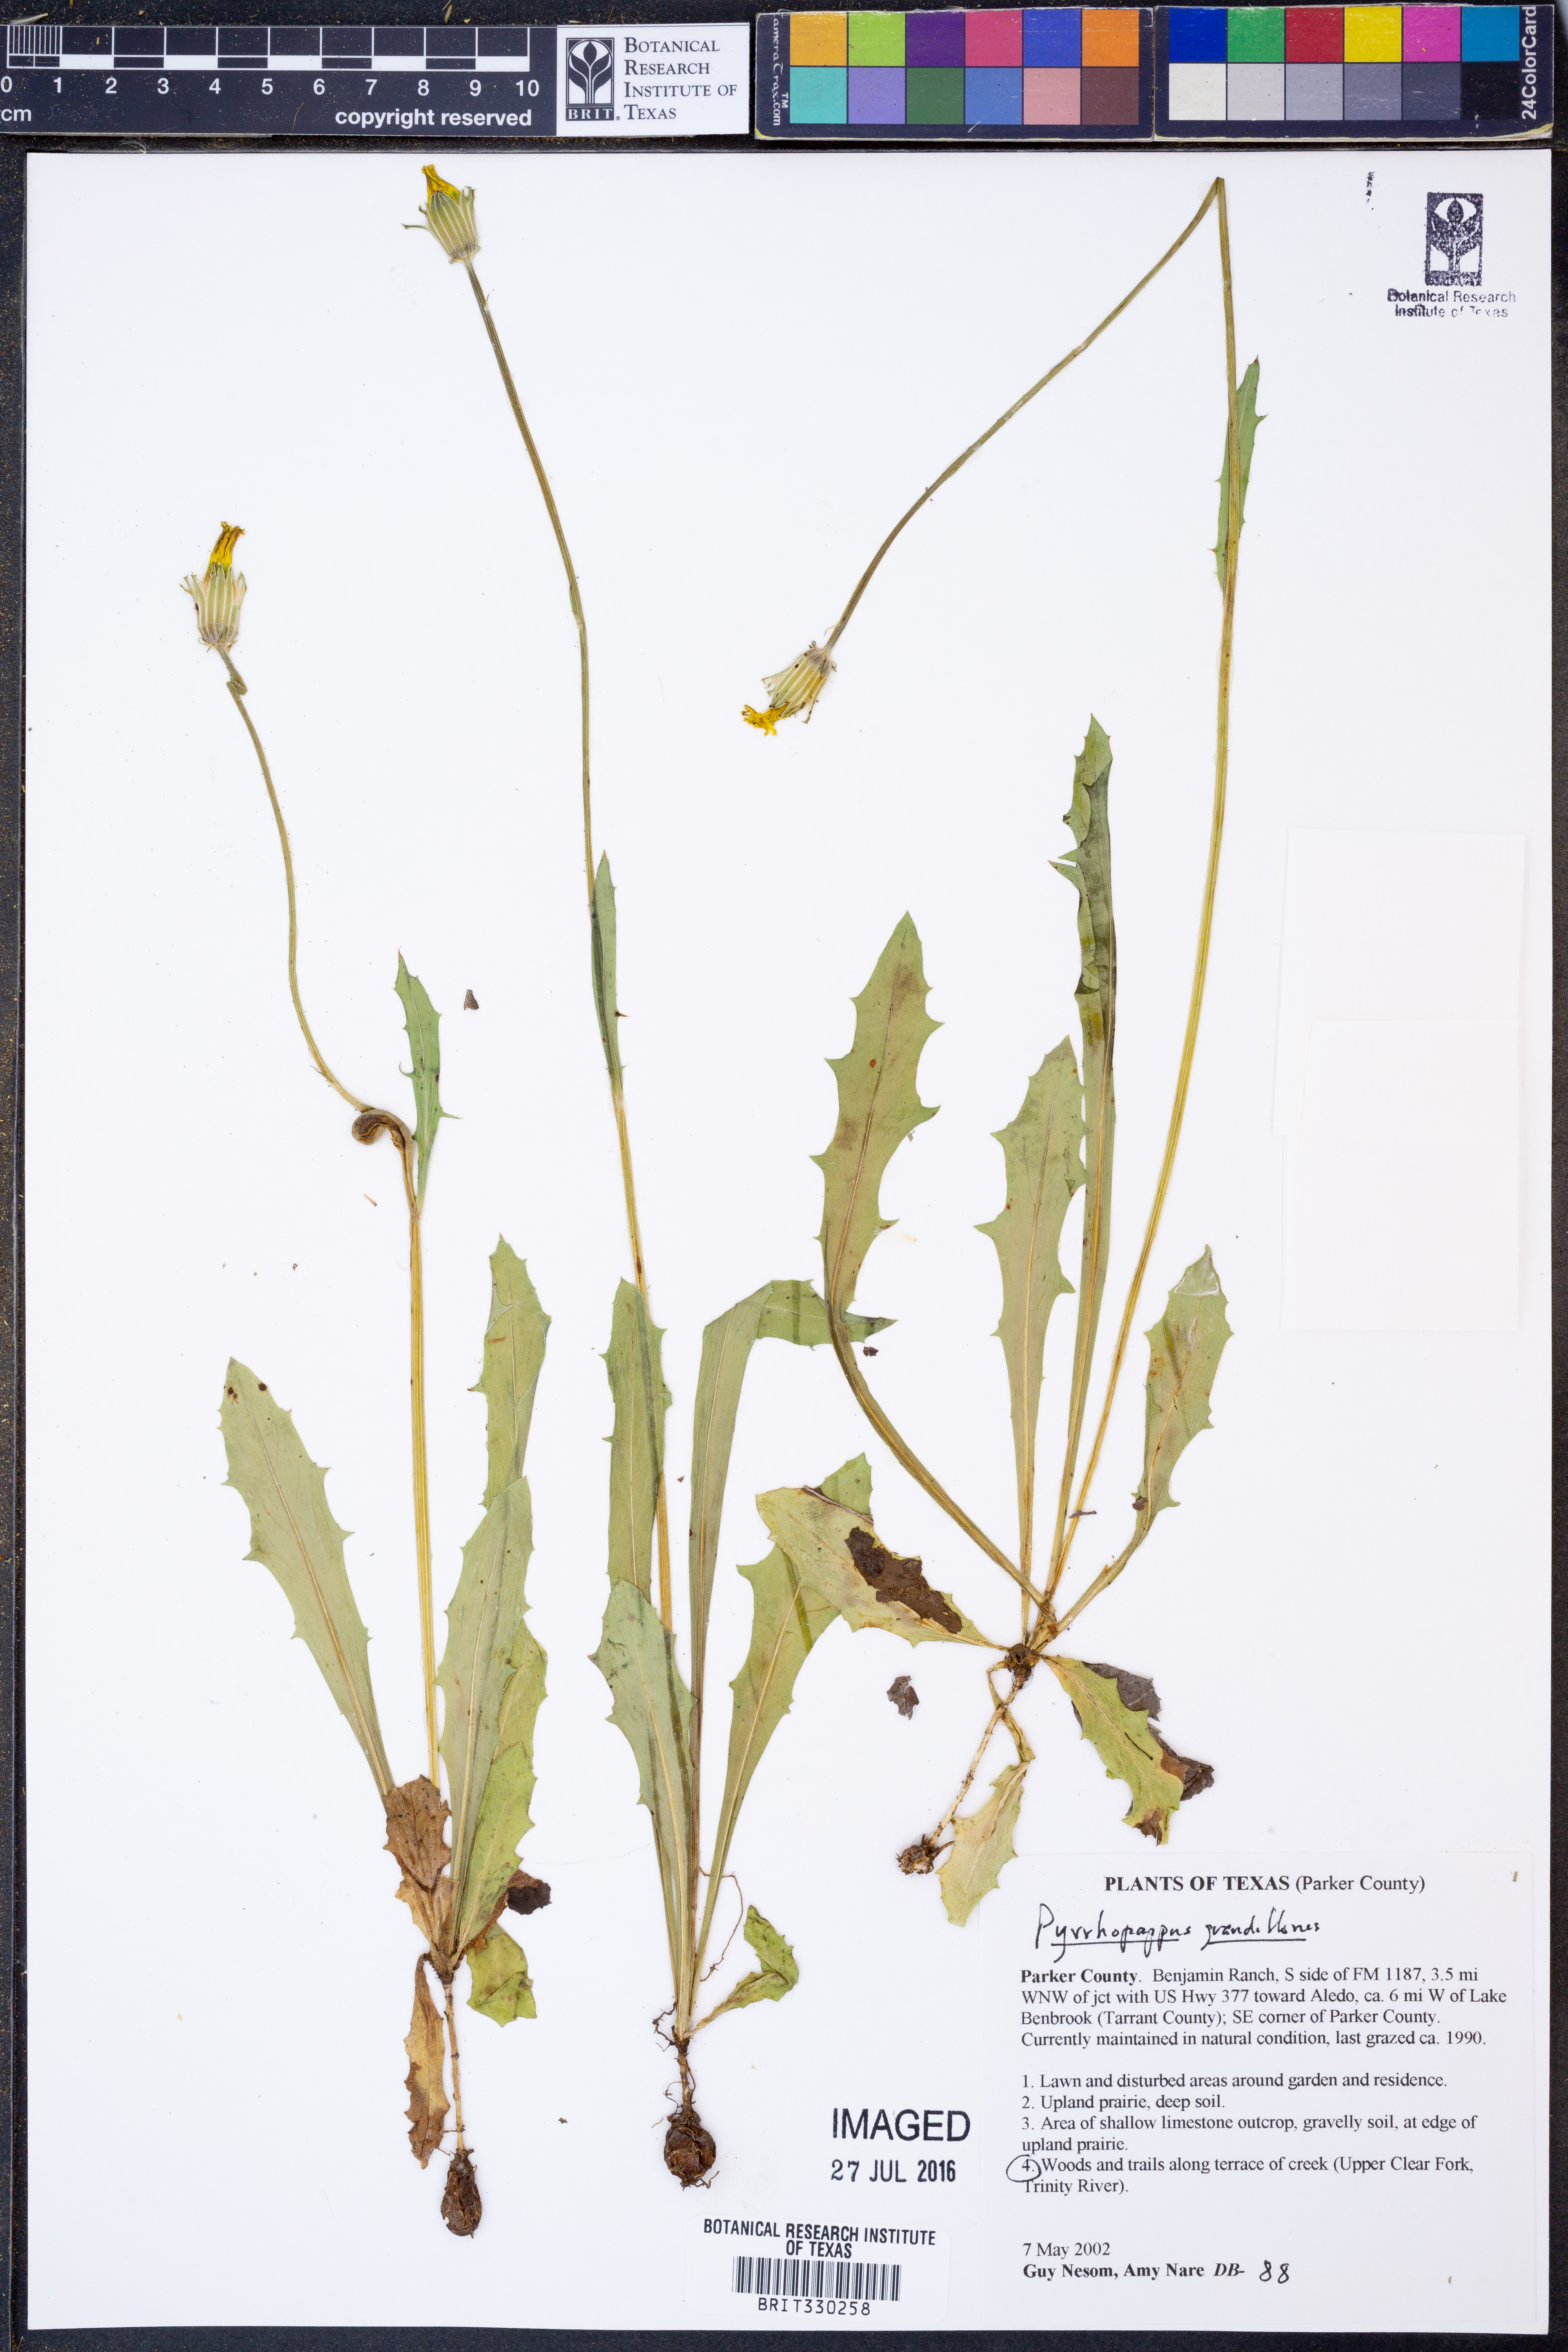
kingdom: Plantae
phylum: Tracheophyta
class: Magnoliopsida
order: Asterales
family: Asteraceae
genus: Pyrrhopappus
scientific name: Pyrrhopappus grandiflorus
